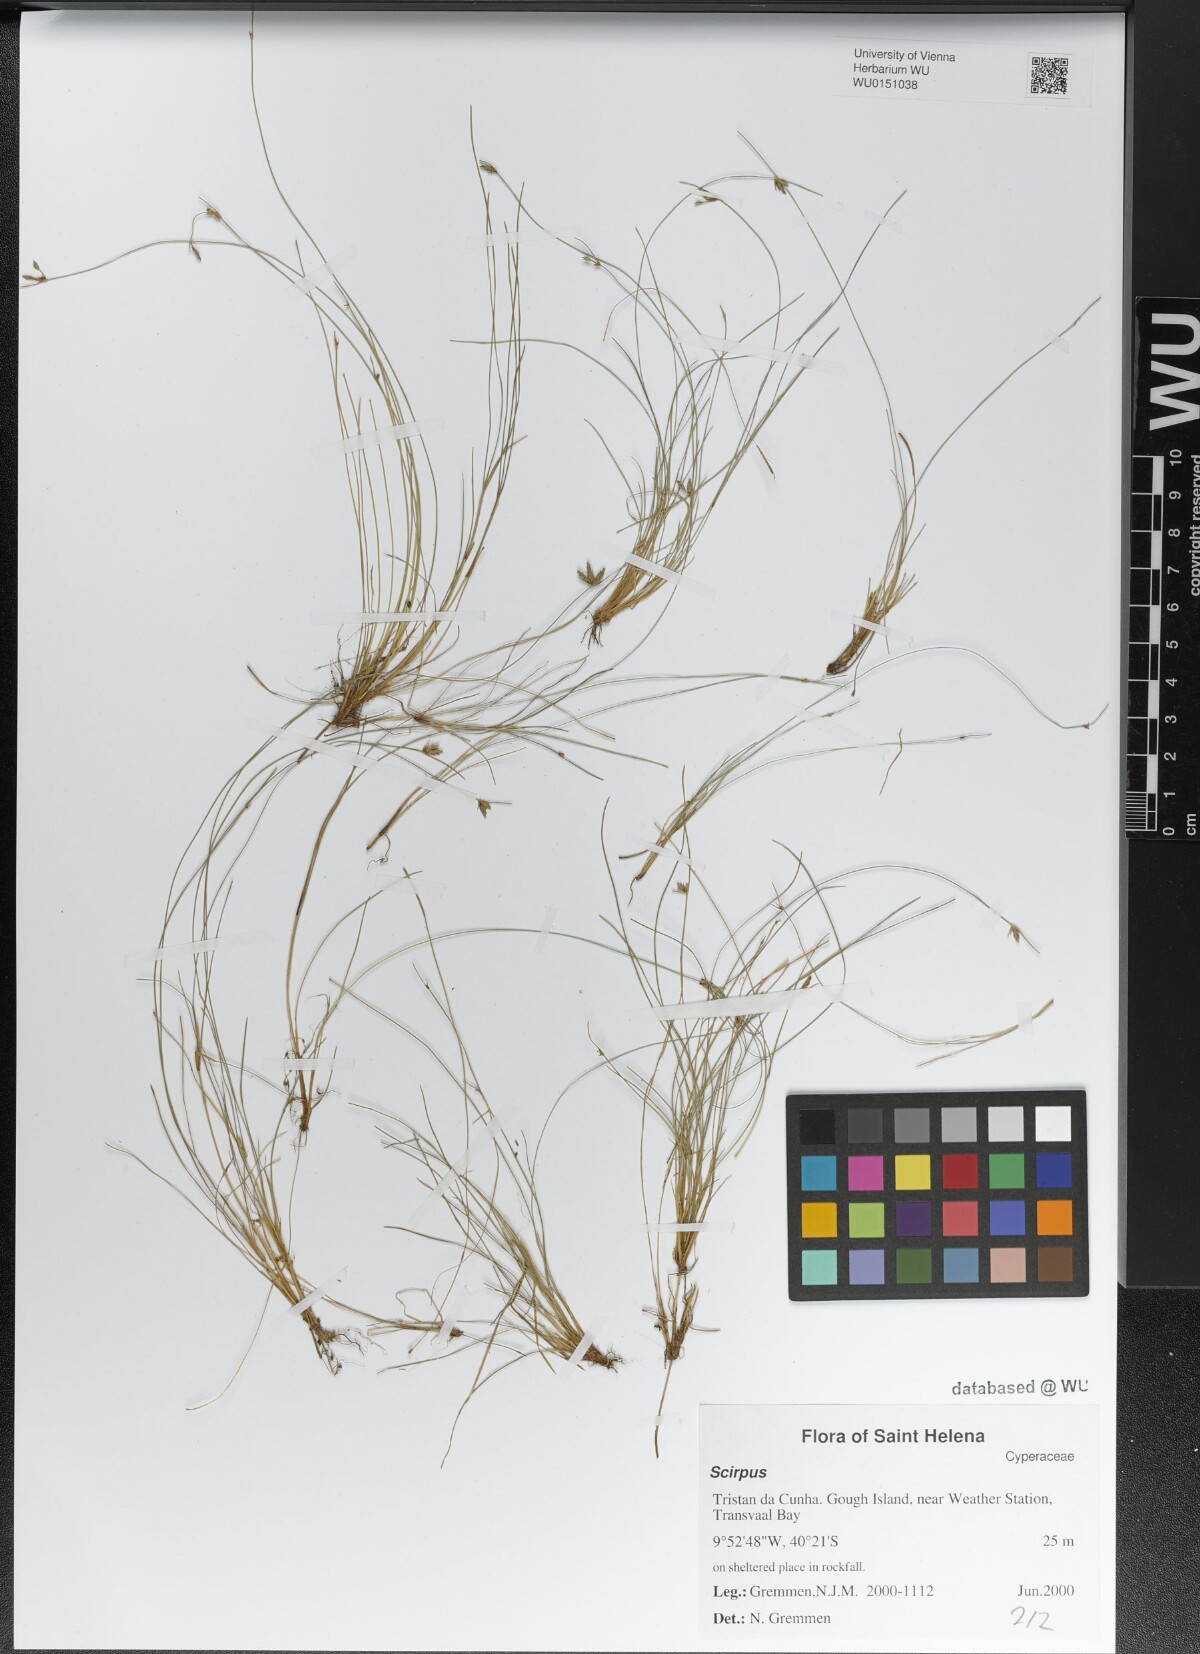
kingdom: Plantae
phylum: Tracheophyta
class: Liliopsida
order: Poales
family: Cyperaceae
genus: Scirpus
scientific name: Scirpus
